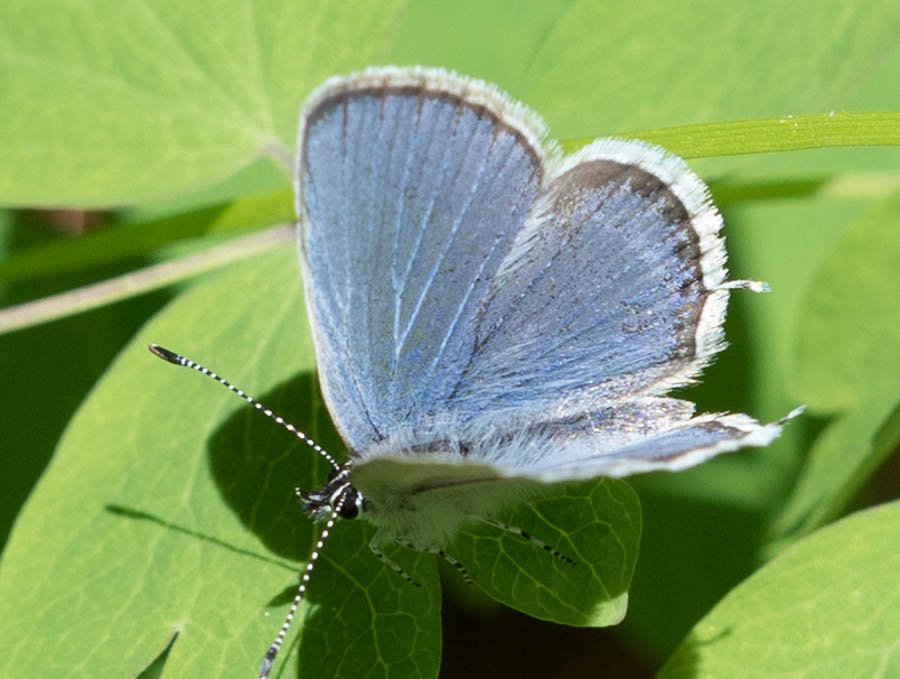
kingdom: Animalia
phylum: Arthropoda
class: Insecta
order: Lepidoptera
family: Lycaenidae
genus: Elkalyce
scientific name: Elkalyce amyntula
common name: Western Tailed-Blue
